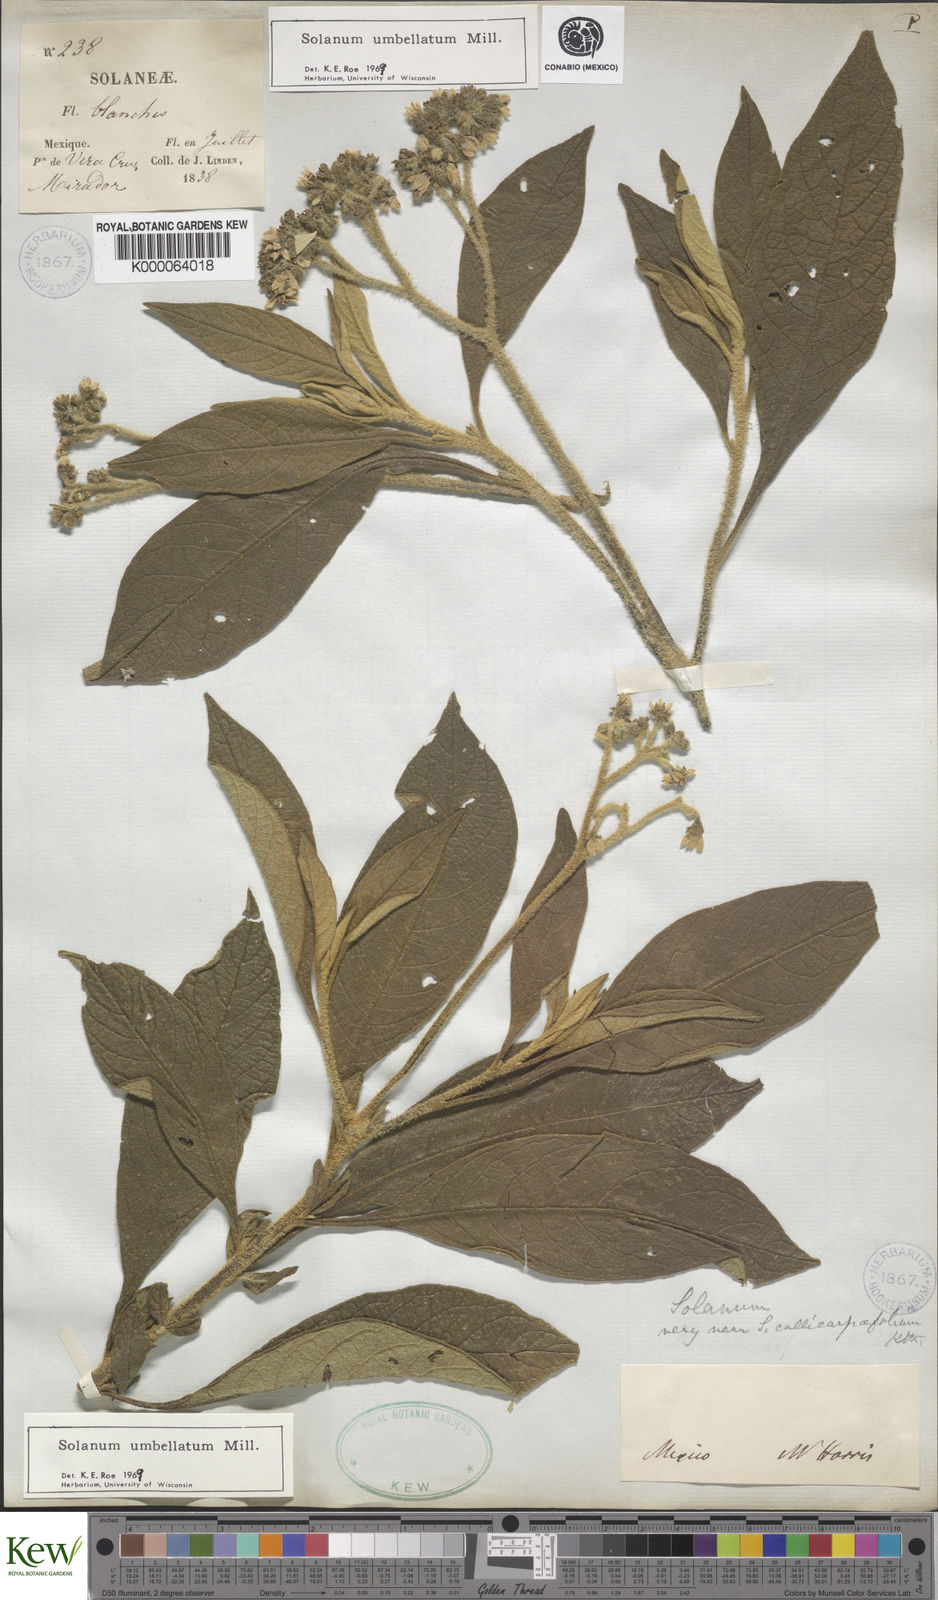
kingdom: Plantae
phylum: Tracheophyta
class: Magnoliopsida
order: Solanales
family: Solanaceae
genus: Solanum
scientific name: Solanum umbellatum
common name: Nightshade
